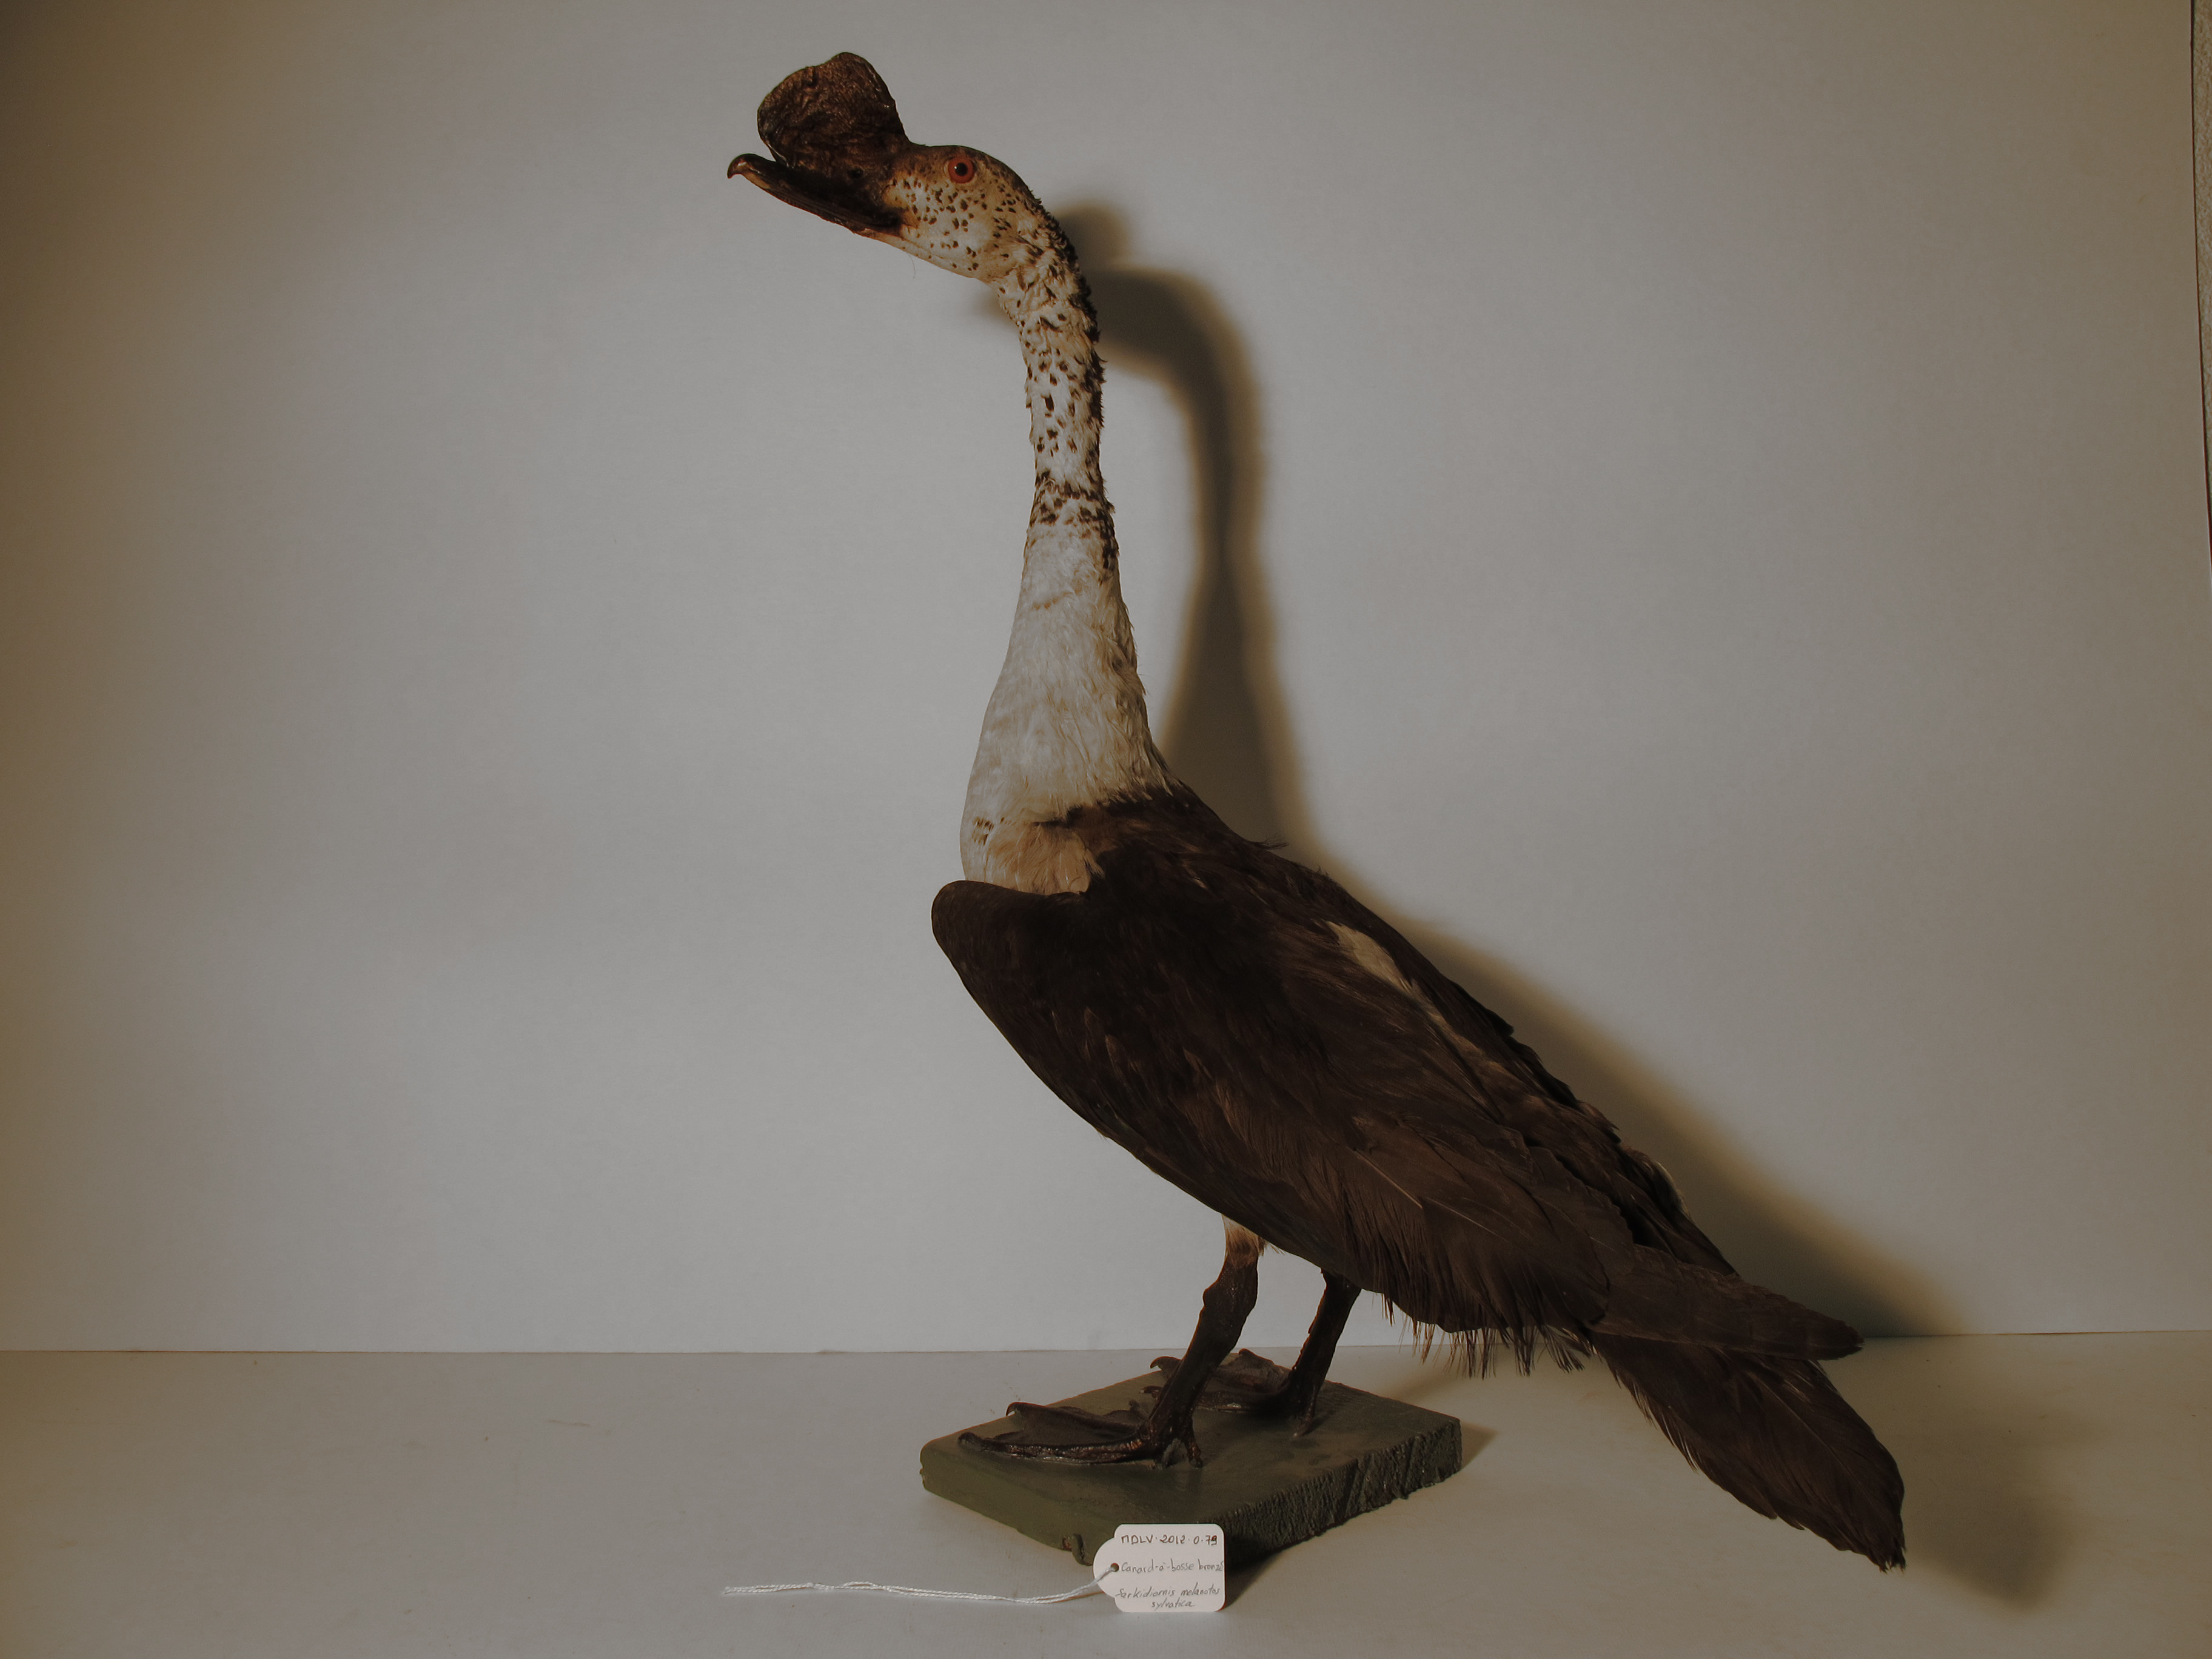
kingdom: Animalia
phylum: Chordata
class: Aves
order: Anseriformes
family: Anatidae
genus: Sarkidiornis
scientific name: Sarkidiornis melanotos
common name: Comb Duck
